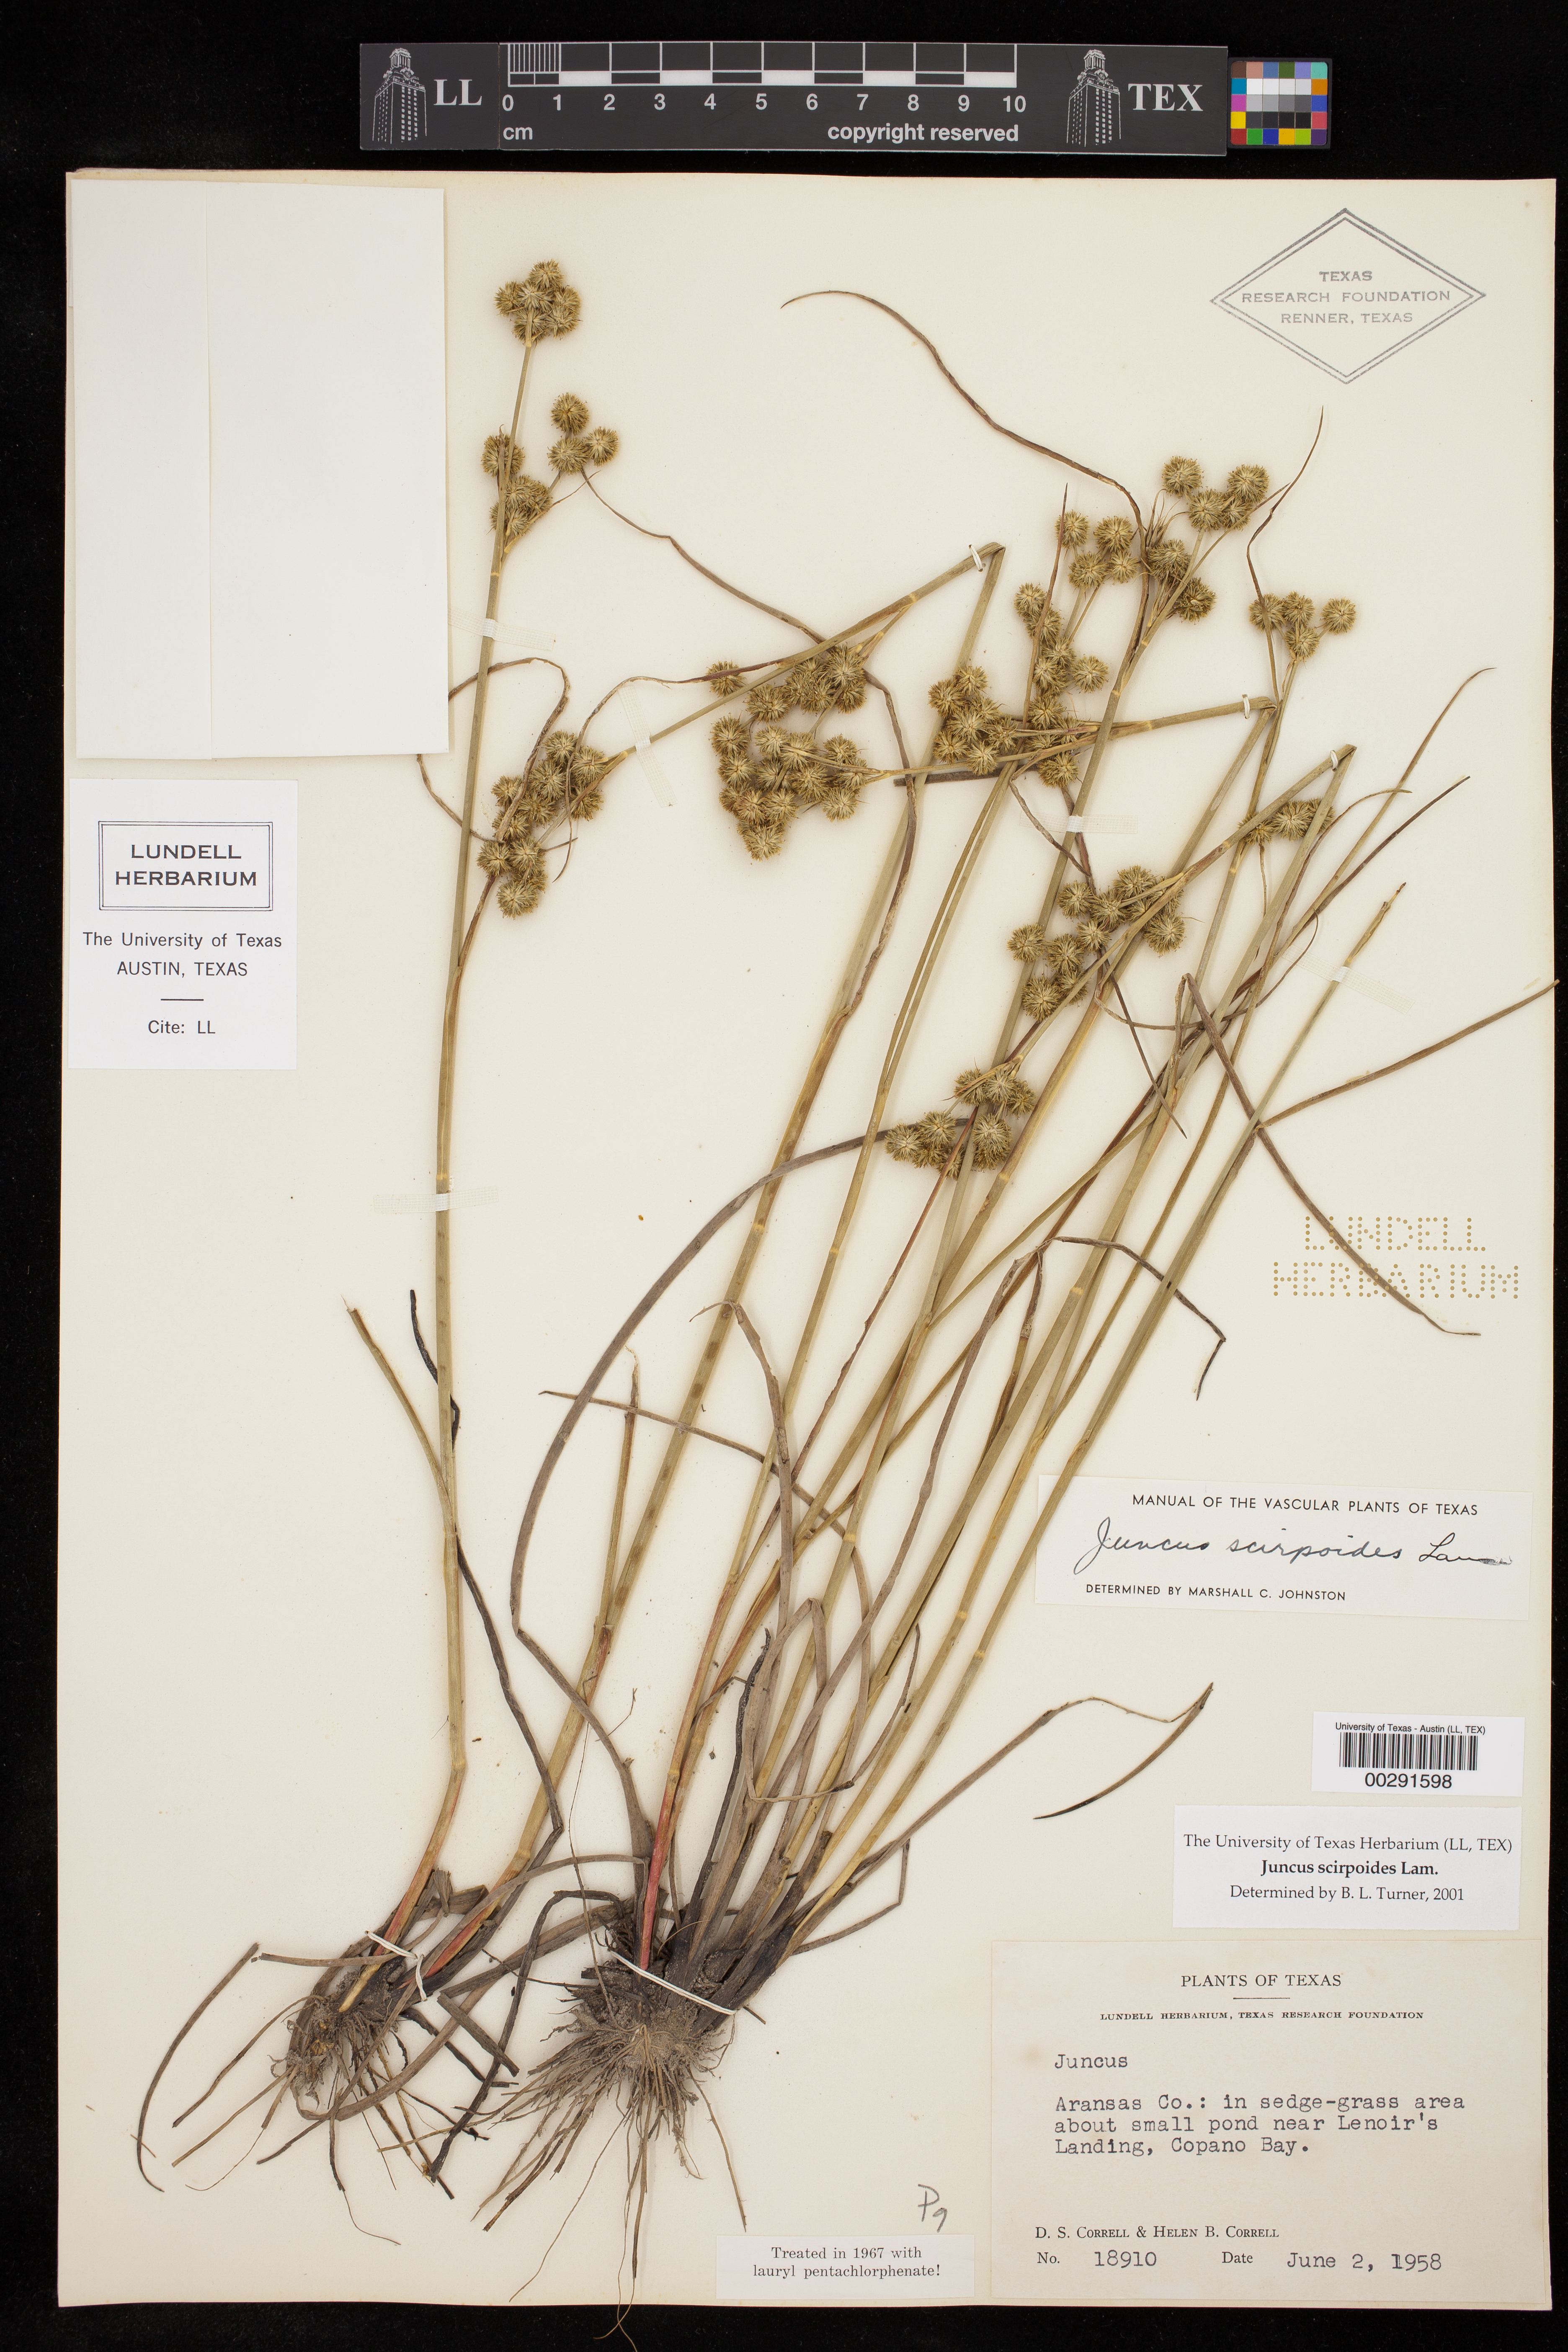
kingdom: Plantae
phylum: Tracheophyta
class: Liliopsida
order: Poales
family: Juncaceae
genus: Juncus
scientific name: Juncus scirpoides
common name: Needlepod rush
